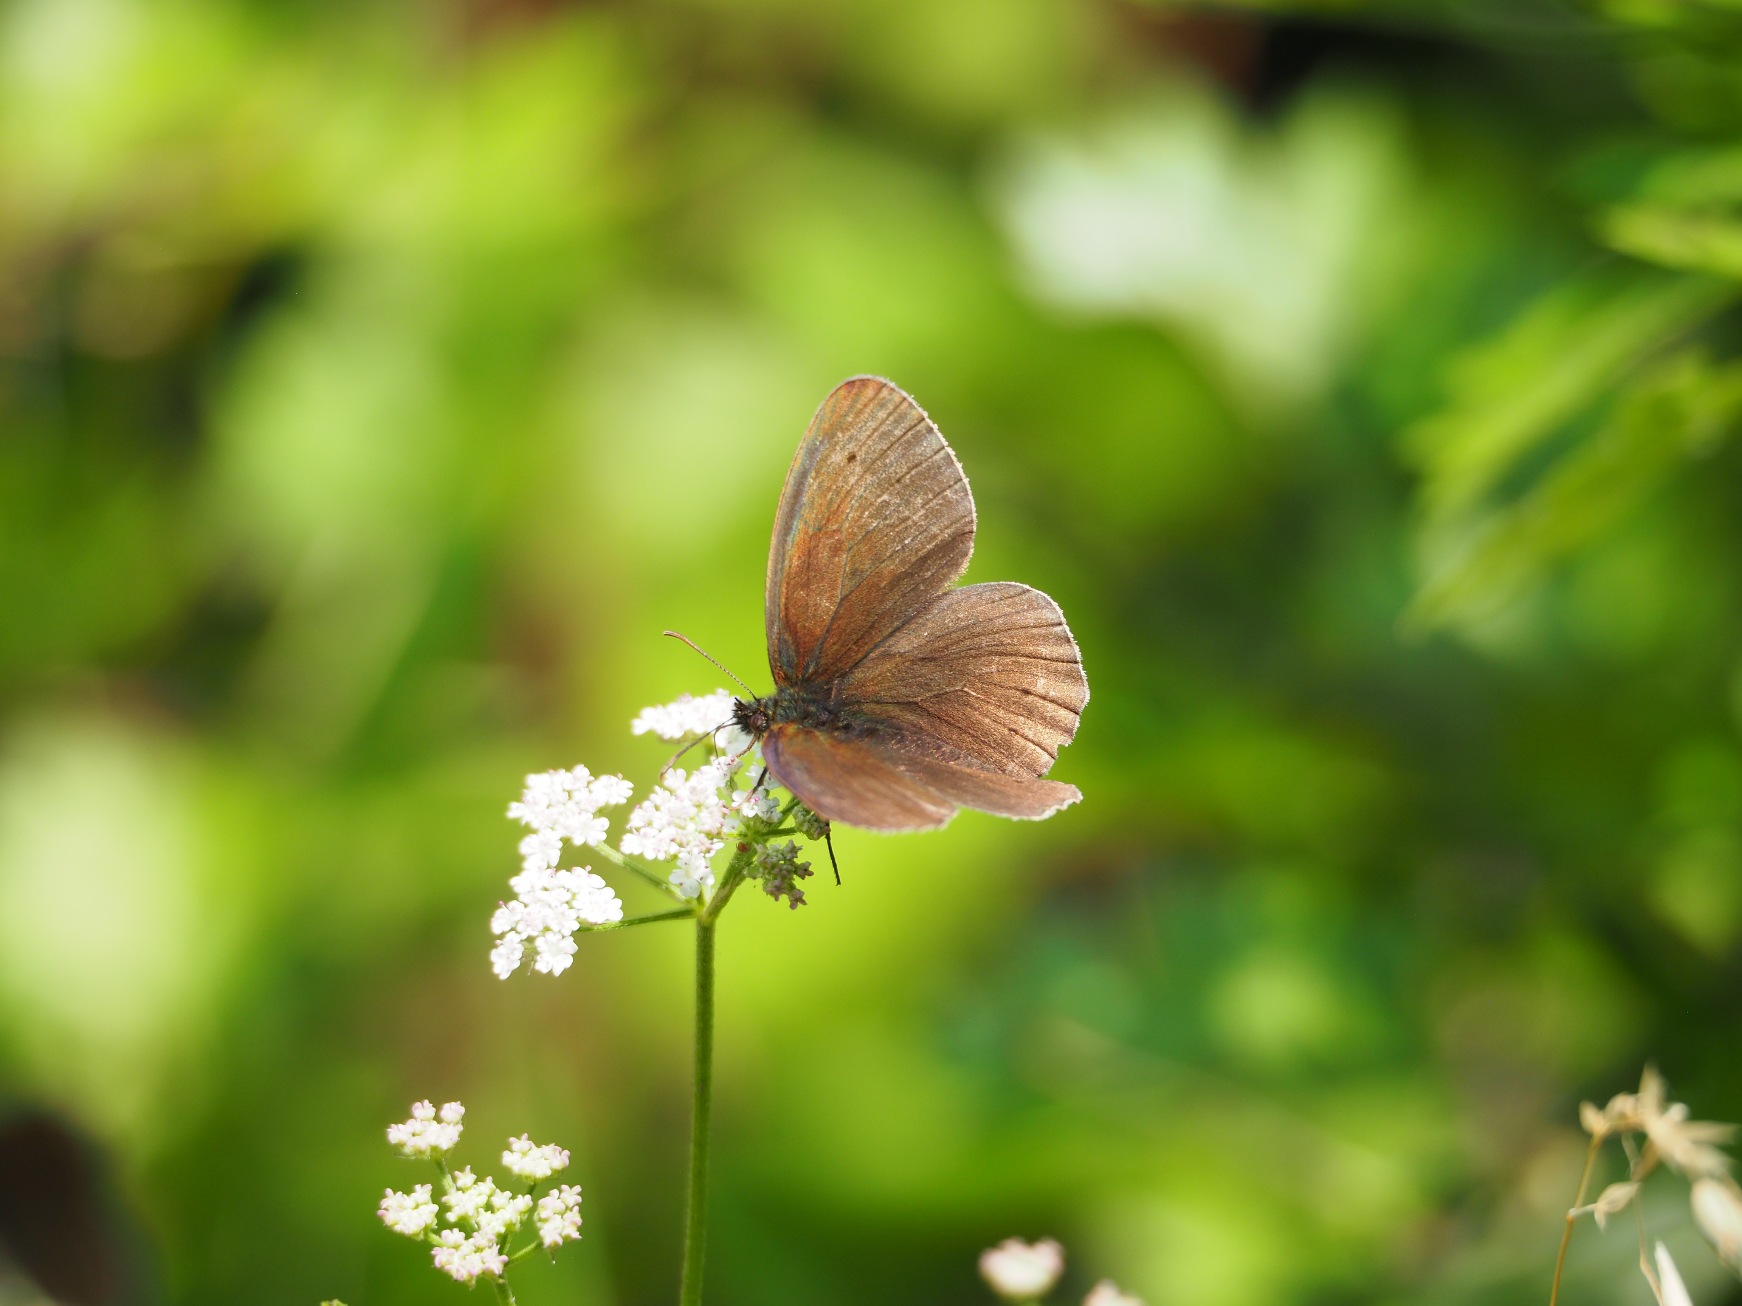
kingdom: Animalia
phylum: Arthropoda
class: Insecta
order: Lepidoptera
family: Nymphalidae
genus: Aphantopus
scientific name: Aphantopus hyperantus
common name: Engrandøje
